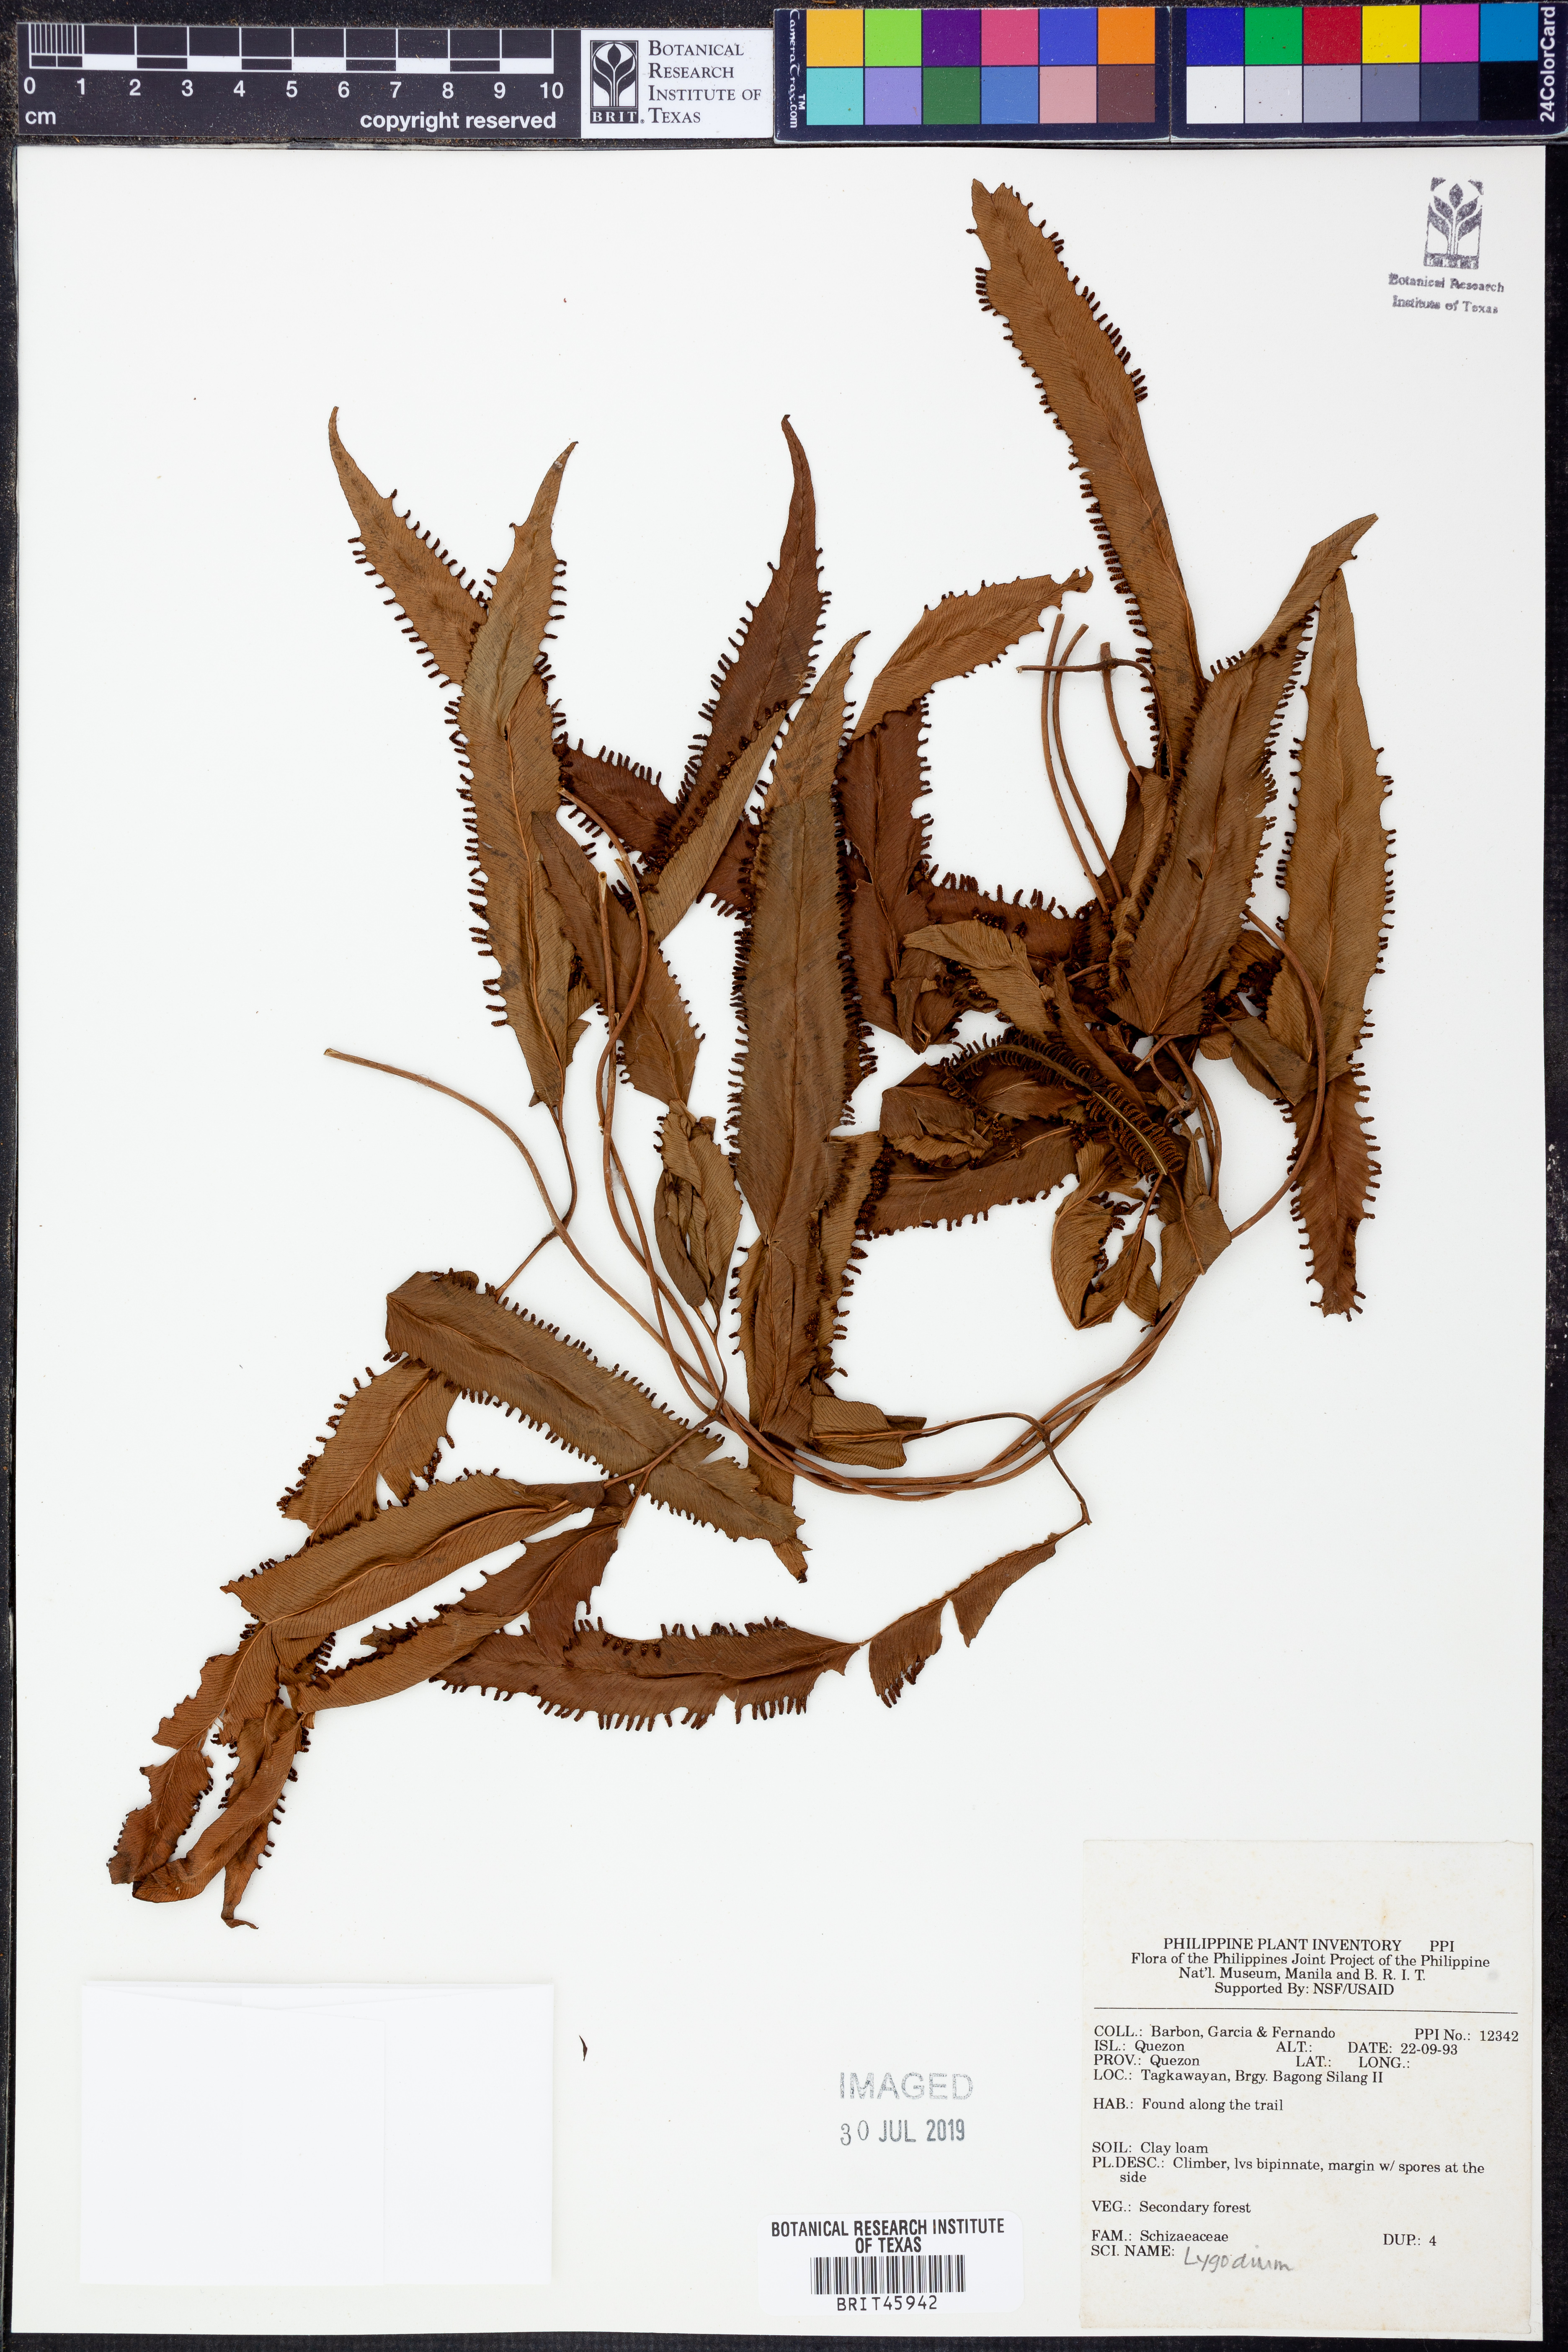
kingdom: Plantae
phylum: Tracheophyta
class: Polypodiopsida
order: Schizaeales
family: Lygodiaceae
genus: Lygodium
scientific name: Lygodium
